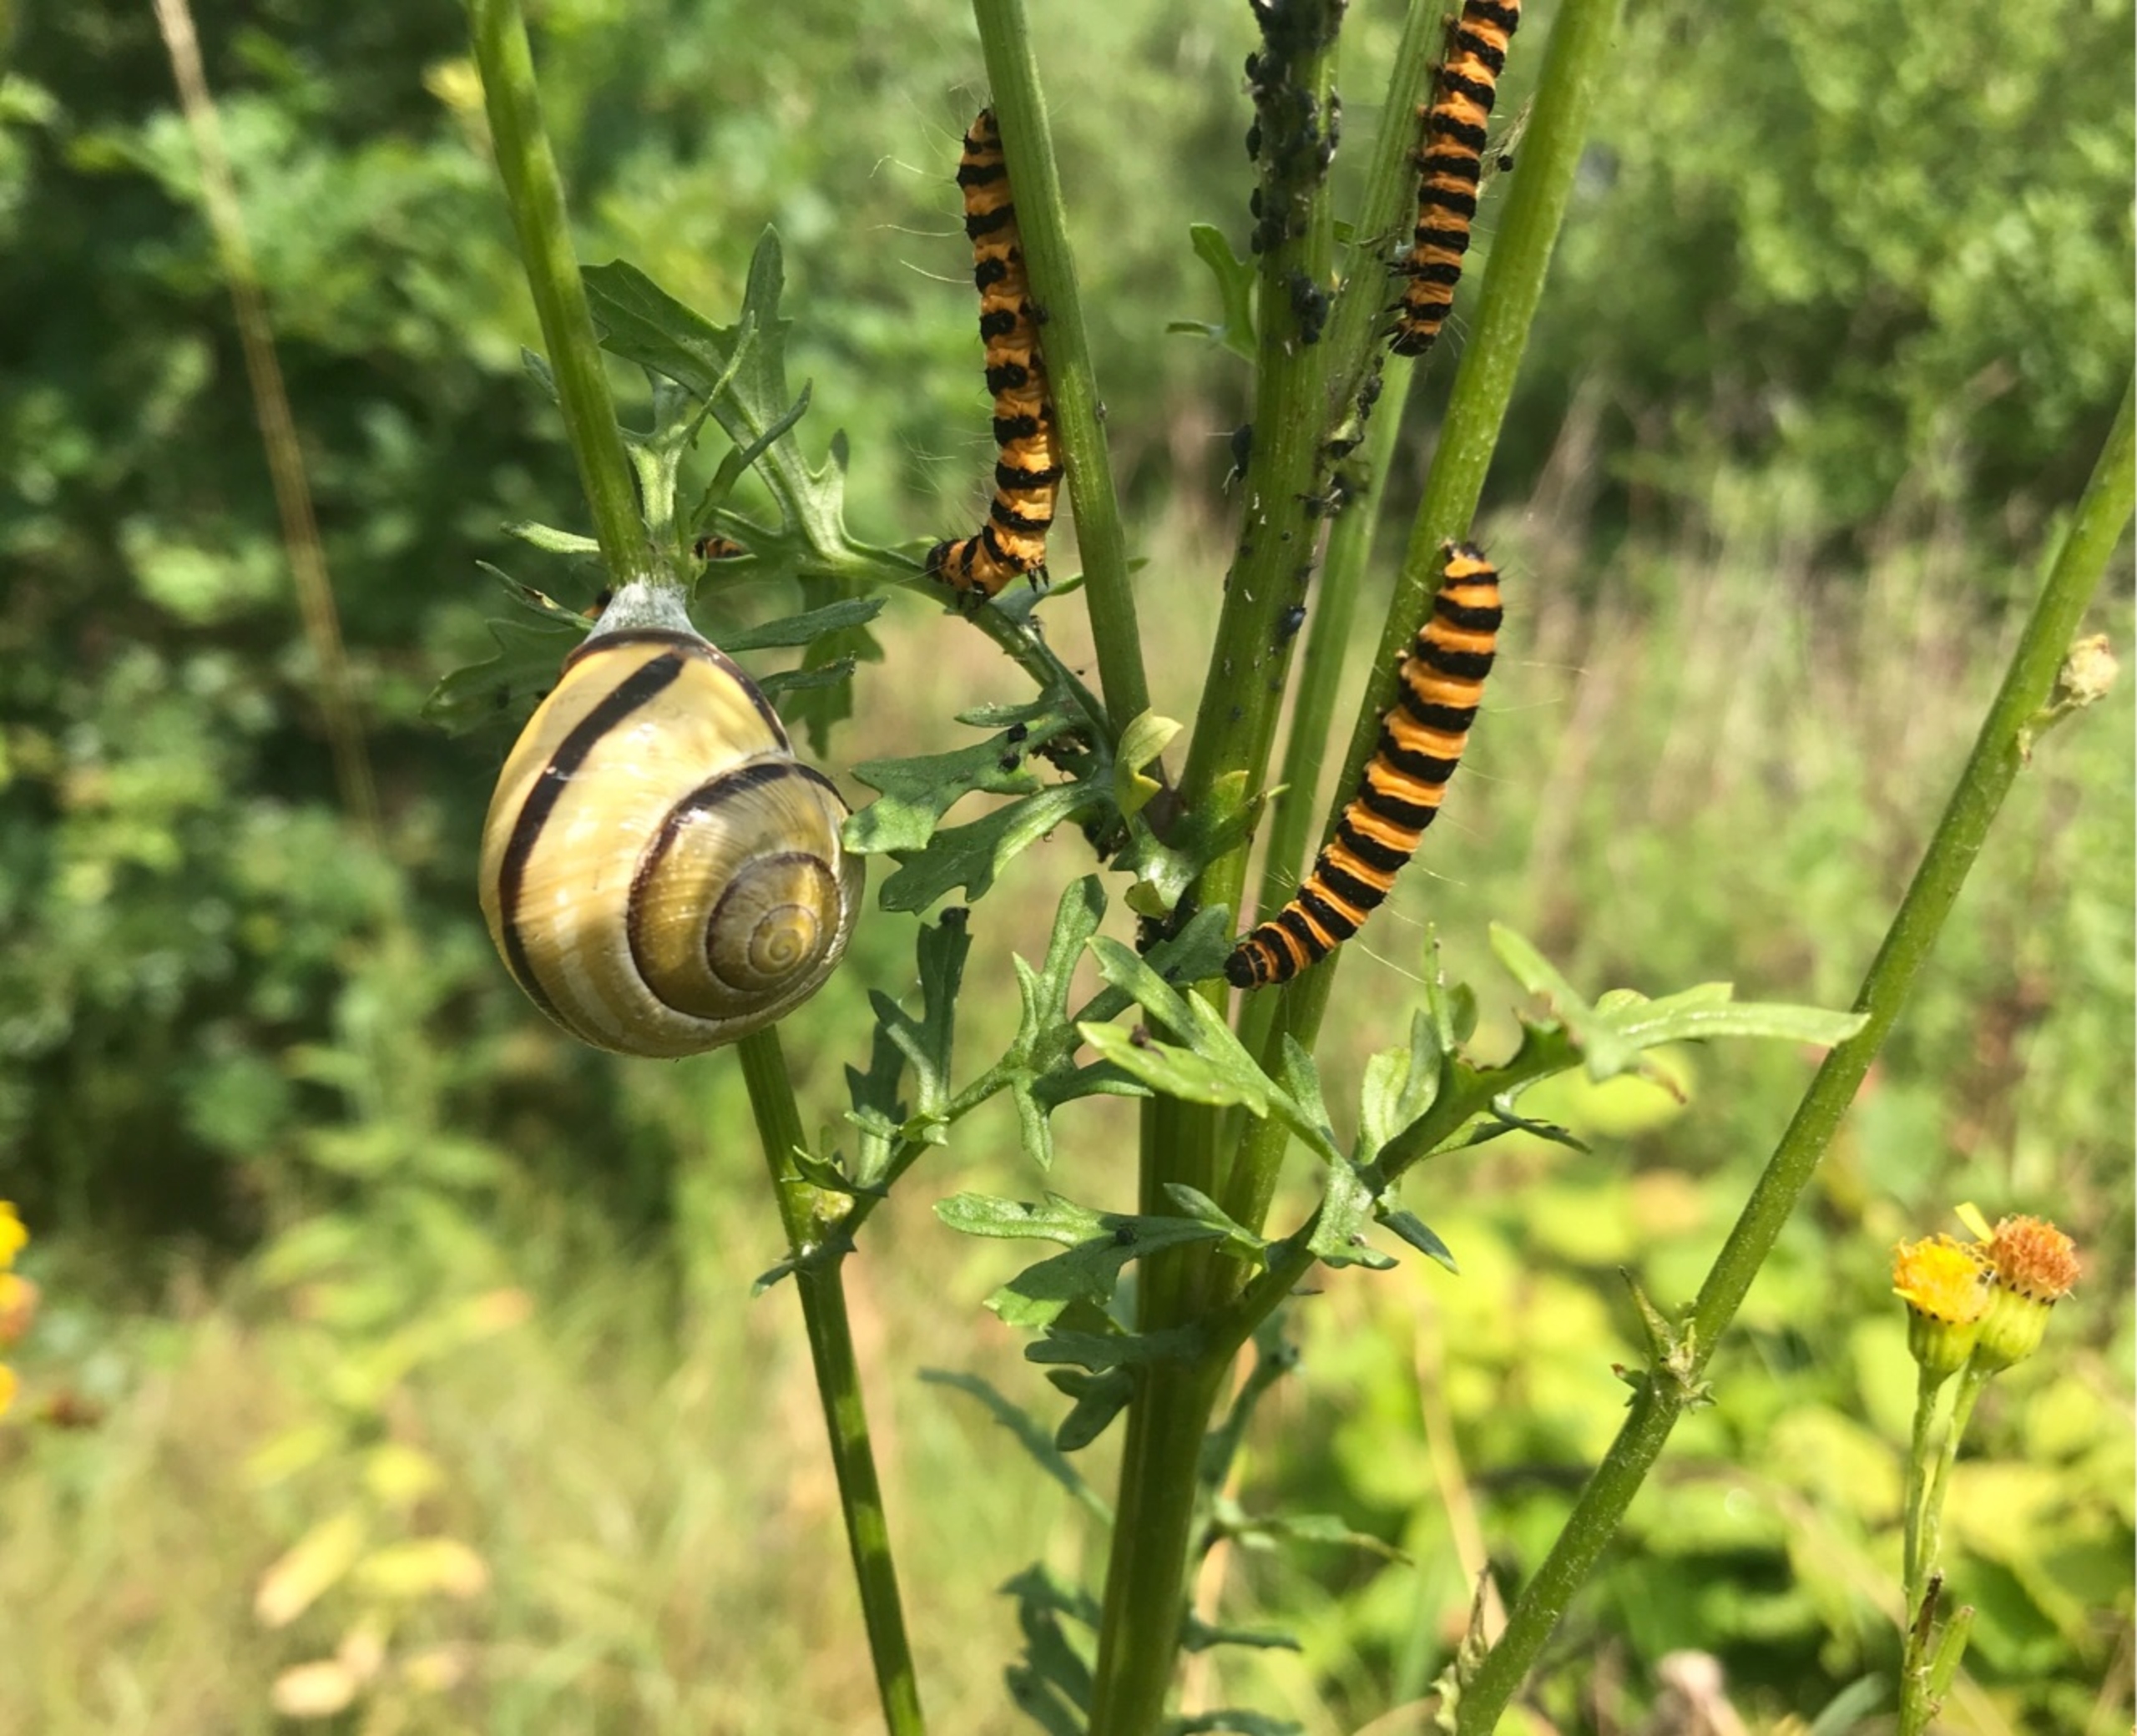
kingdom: Animalia
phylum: Arthropoda
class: Insecta
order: Lepidoptera
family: Erebidae
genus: Tyria
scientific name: Tyria jacobaeae
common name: Blodplet
